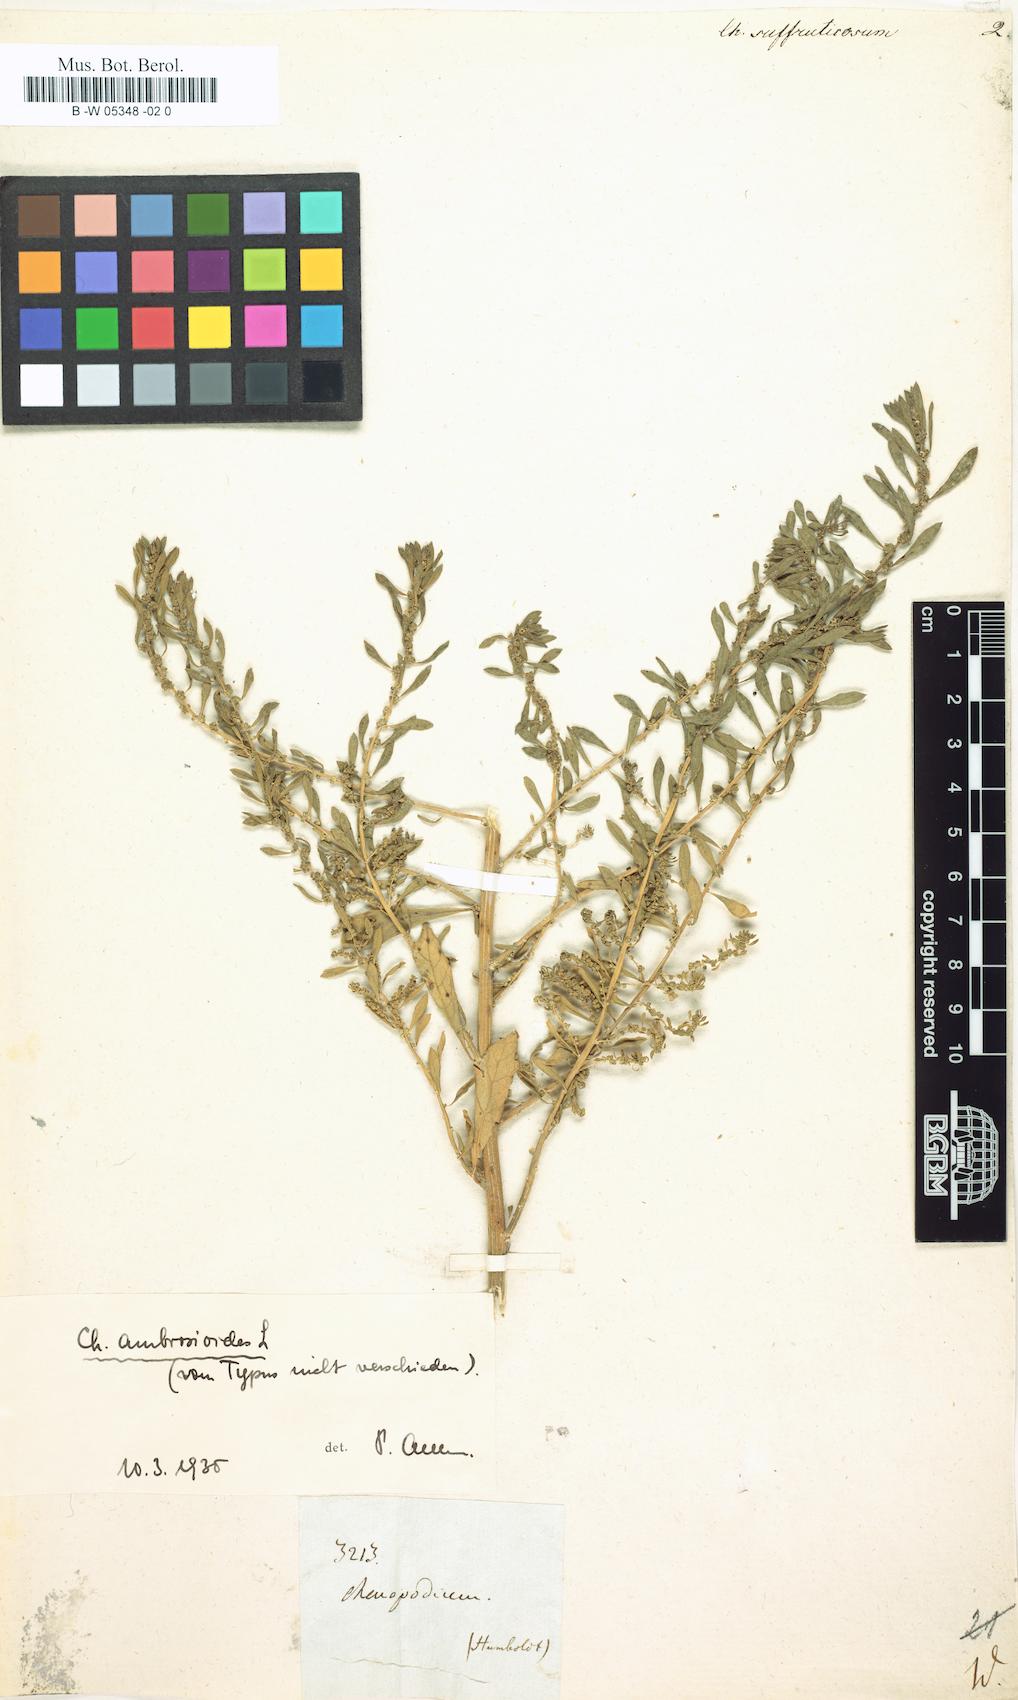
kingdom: Plantae
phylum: Tracheophyta
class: Magnoliopsida
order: Caryophyllales
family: Amaranthaceae
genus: Dysphania
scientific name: Dysphania ambrosioides
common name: Wormseed
